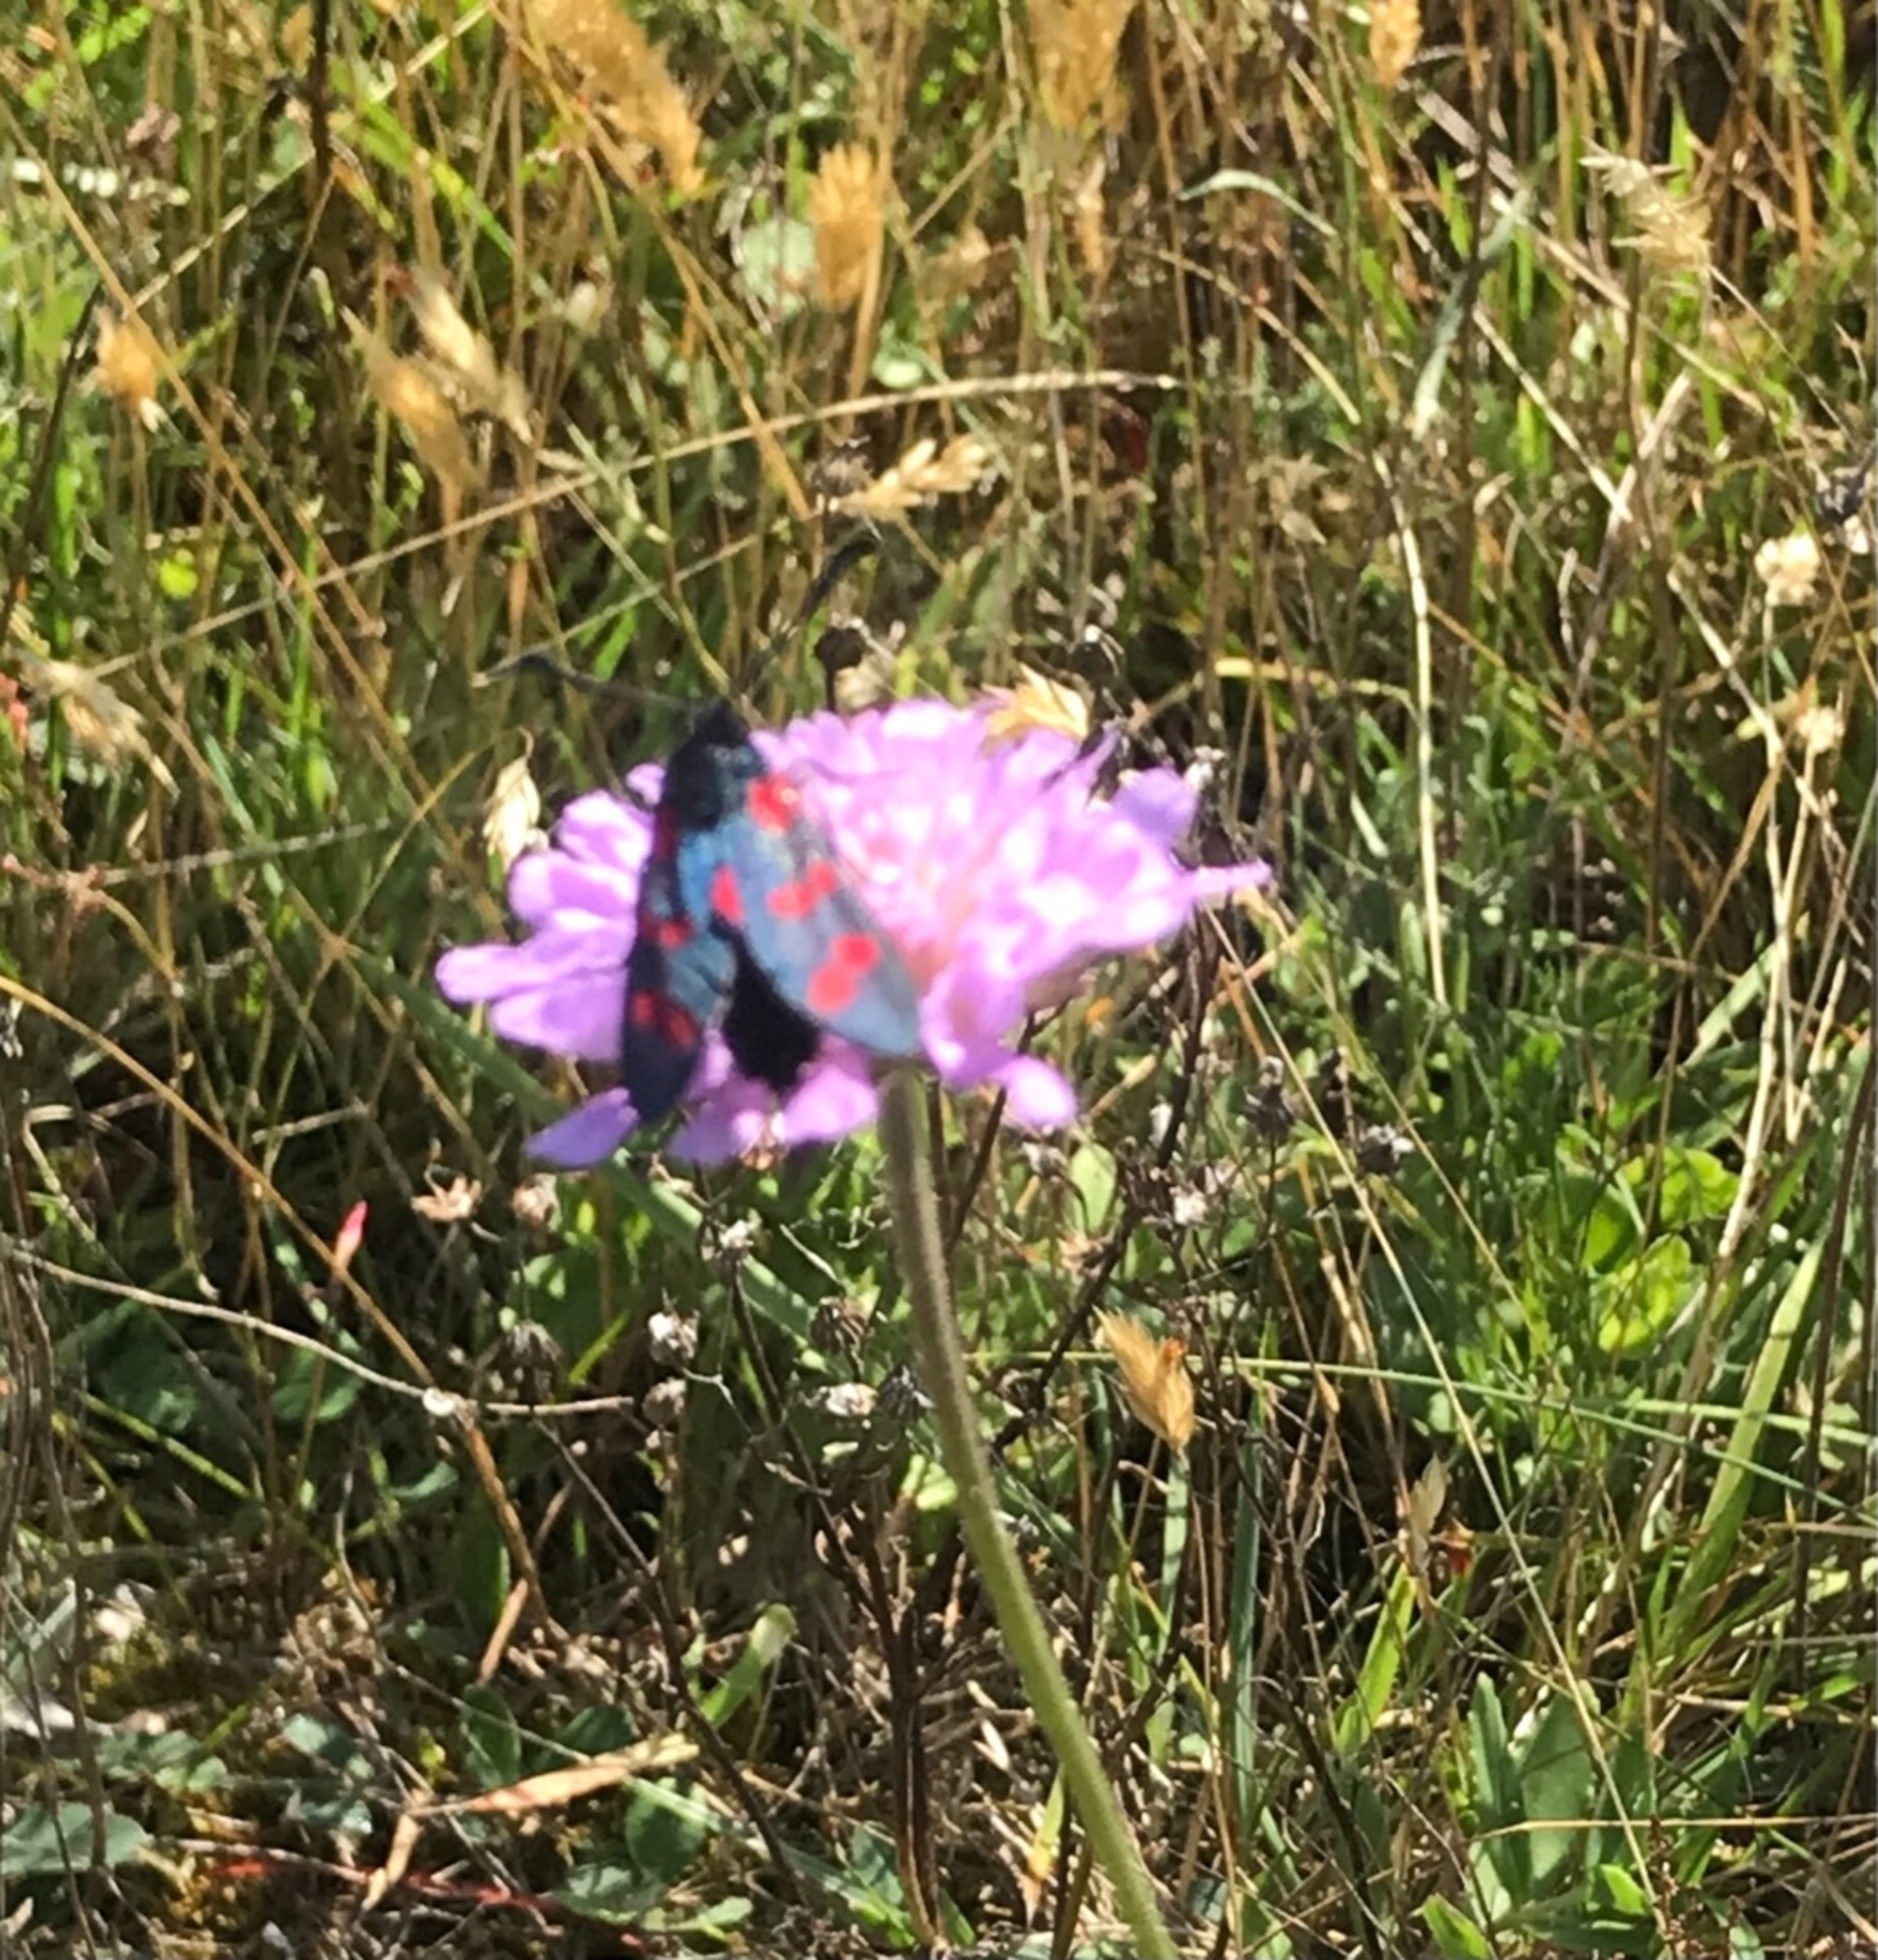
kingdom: Animalia
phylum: Arthropoda
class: Insecta
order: Lepidoptera
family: Zygaenidae
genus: Zygaena
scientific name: Zygaena filipendulae
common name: Seksplettet køllesværmer
